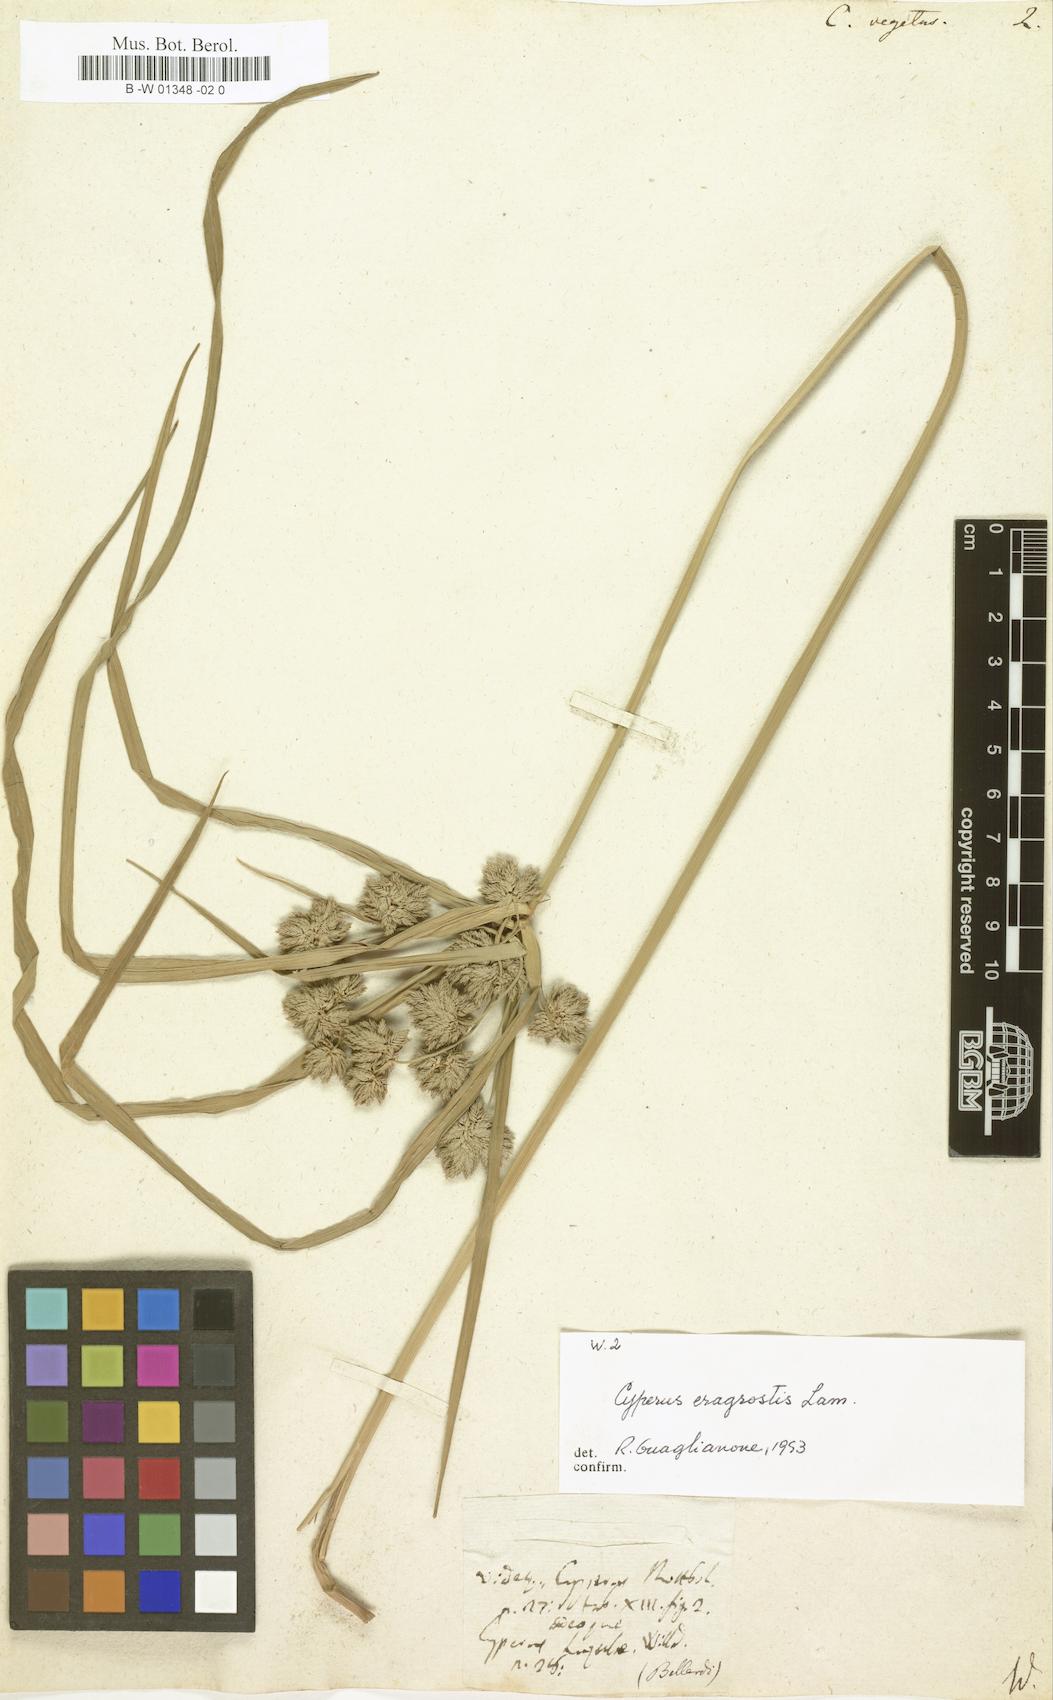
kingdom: Plantae
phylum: Tracheophyta
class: Liliopsida
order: Poales
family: Cyperaceae
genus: Cyperus
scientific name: Cyperus vegetus
